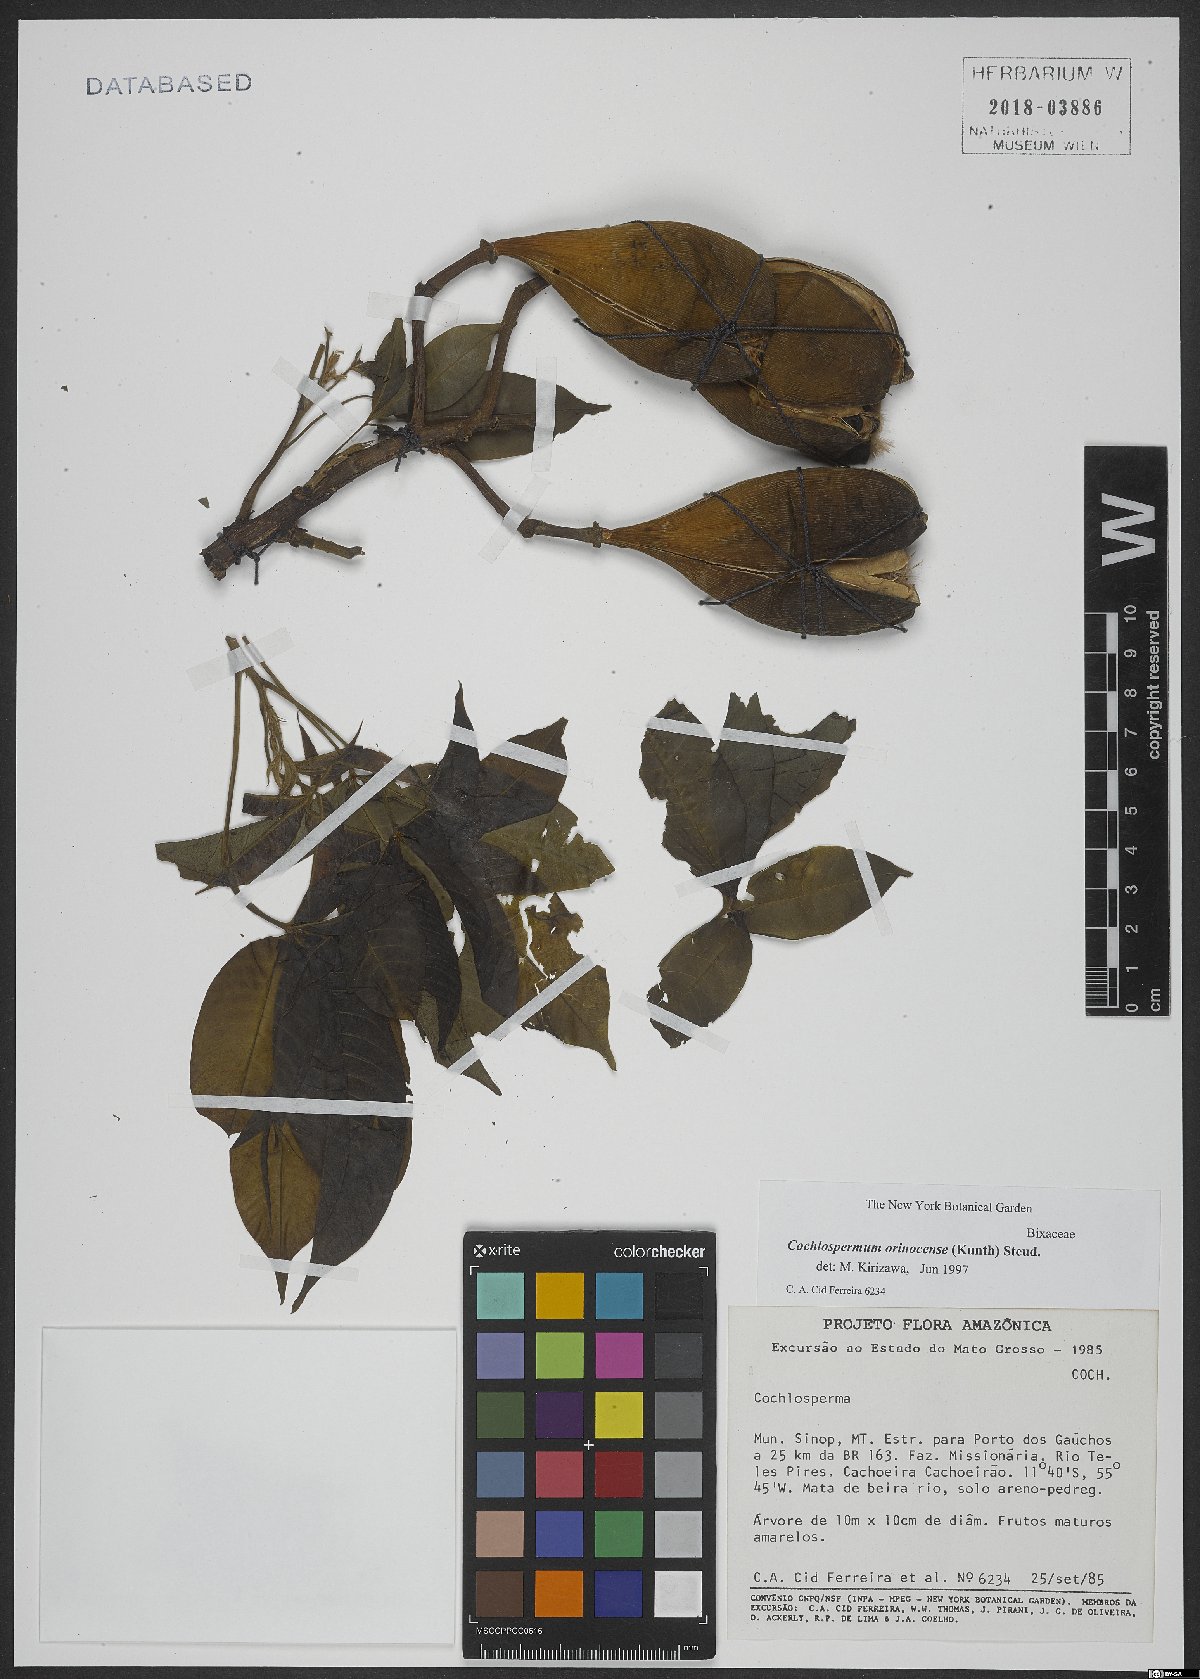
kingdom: Plantae
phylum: Tracheophyta
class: Magnoliopsida
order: Malvales
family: Cochlospermaceae
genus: Cochlospermum
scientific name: Cochlospermum orinocense
